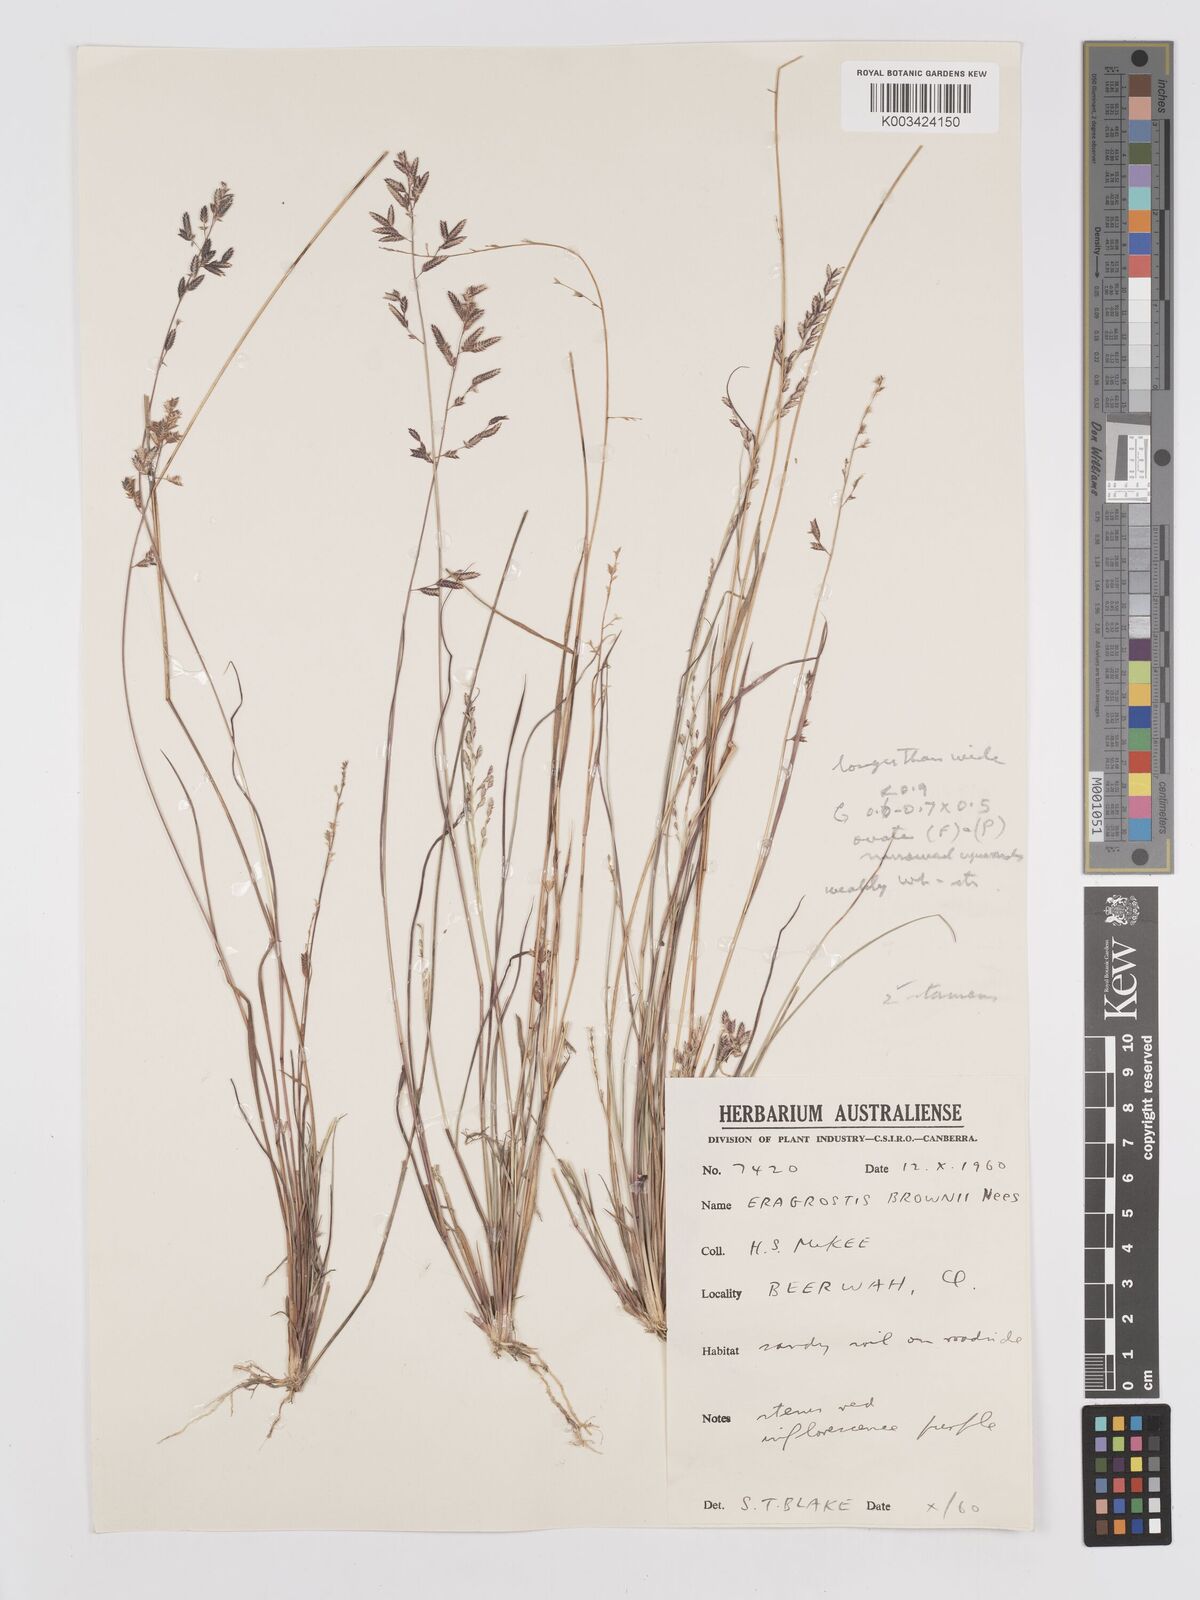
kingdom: Plantae
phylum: Tracheophyta
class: Liliopsida
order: Poales
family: Poaceae
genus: Eragrostis
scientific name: Eragrostis brownii
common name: Lovegrass
